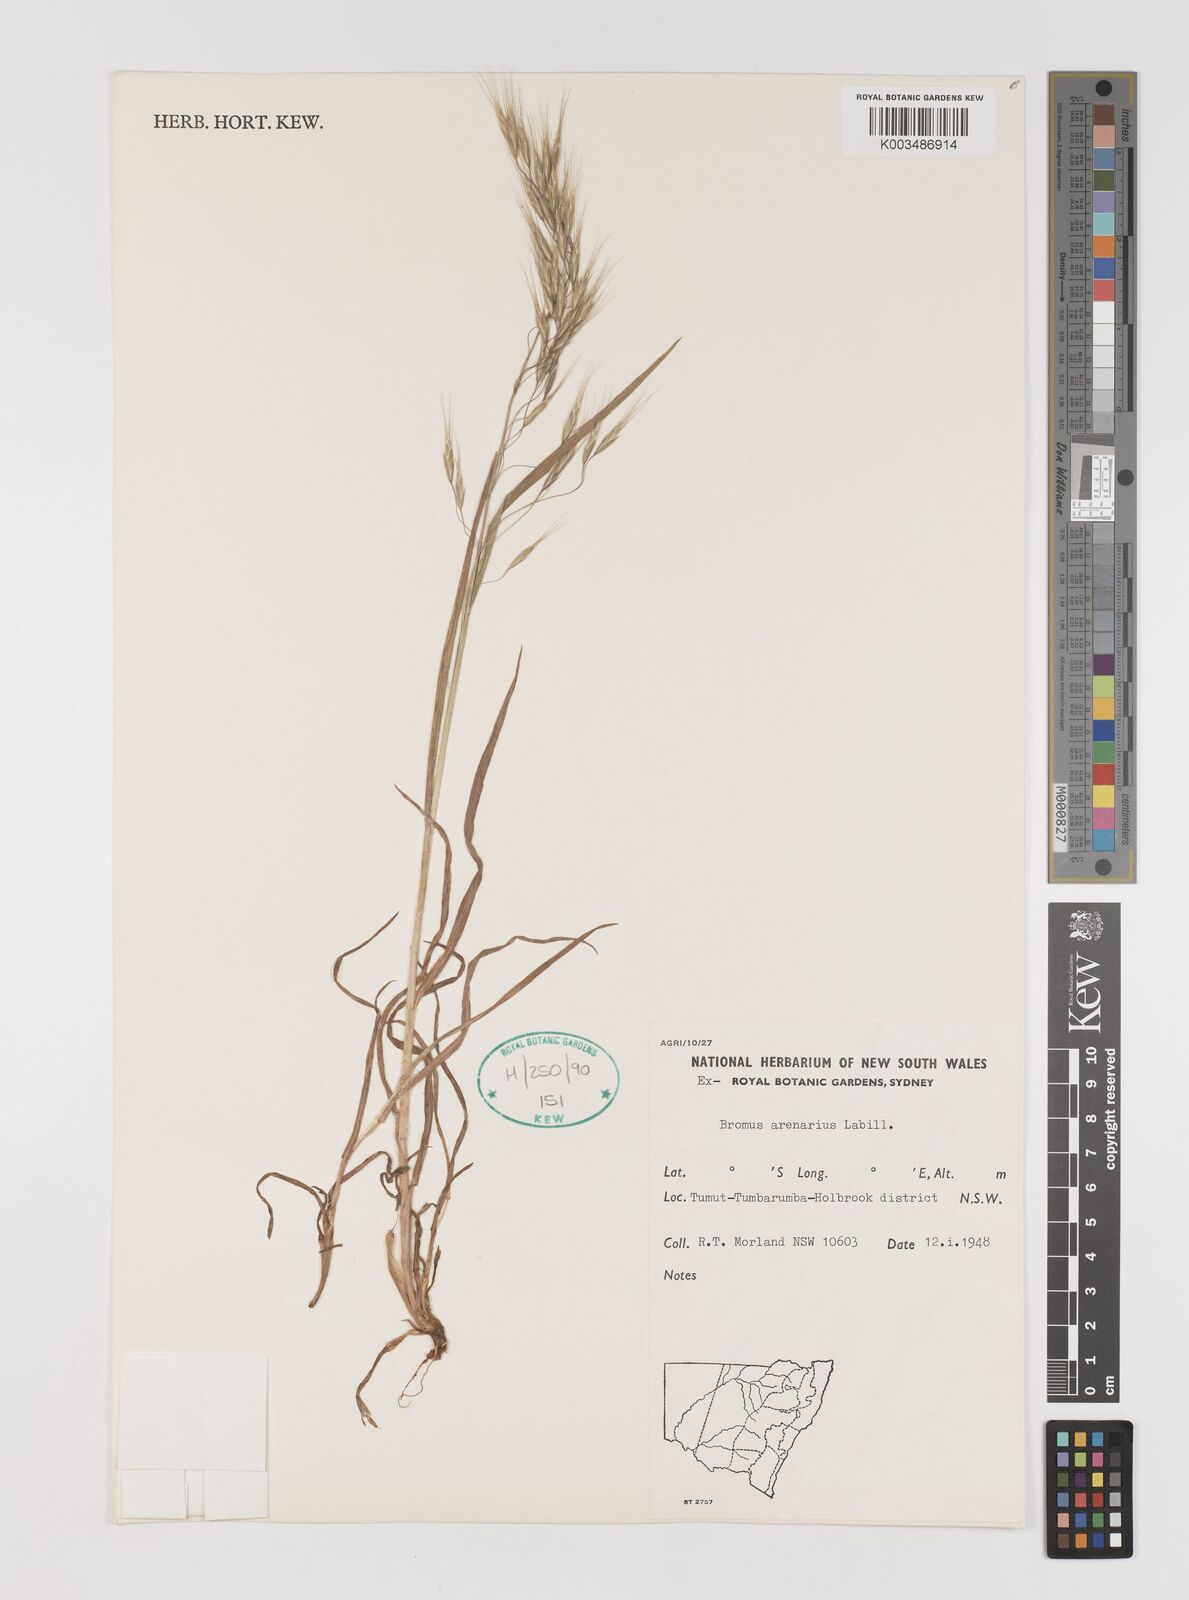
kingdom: Plantae
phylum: Tracheophyta
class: Liliopsida
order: Poales
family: Poaceae
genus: Bromus
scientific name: Bromus arenarius
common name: Australian brome
